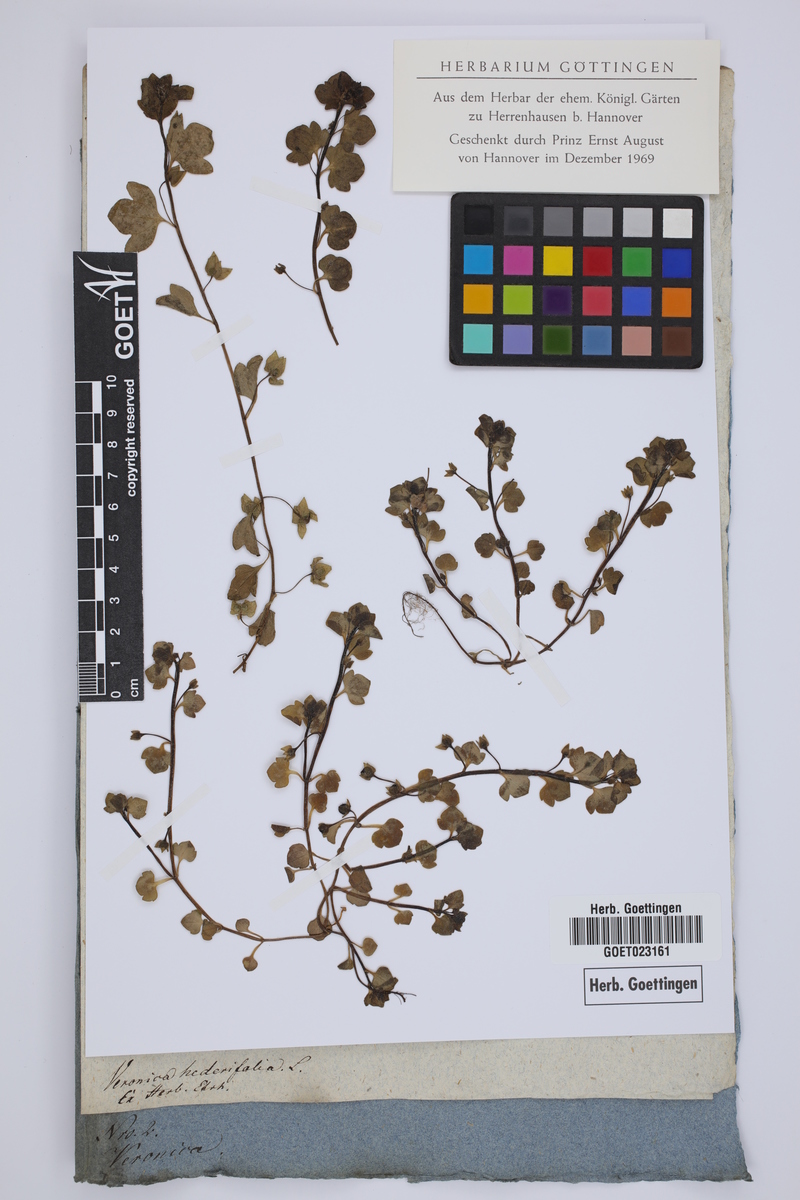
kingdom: Plantae
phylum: Tracheophyta
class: Magnoliopsida
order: Lamiales
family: Plantaginaceae
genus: Veronica
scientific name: Veronica hederifolia
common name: Ivy-leaved speedwell
